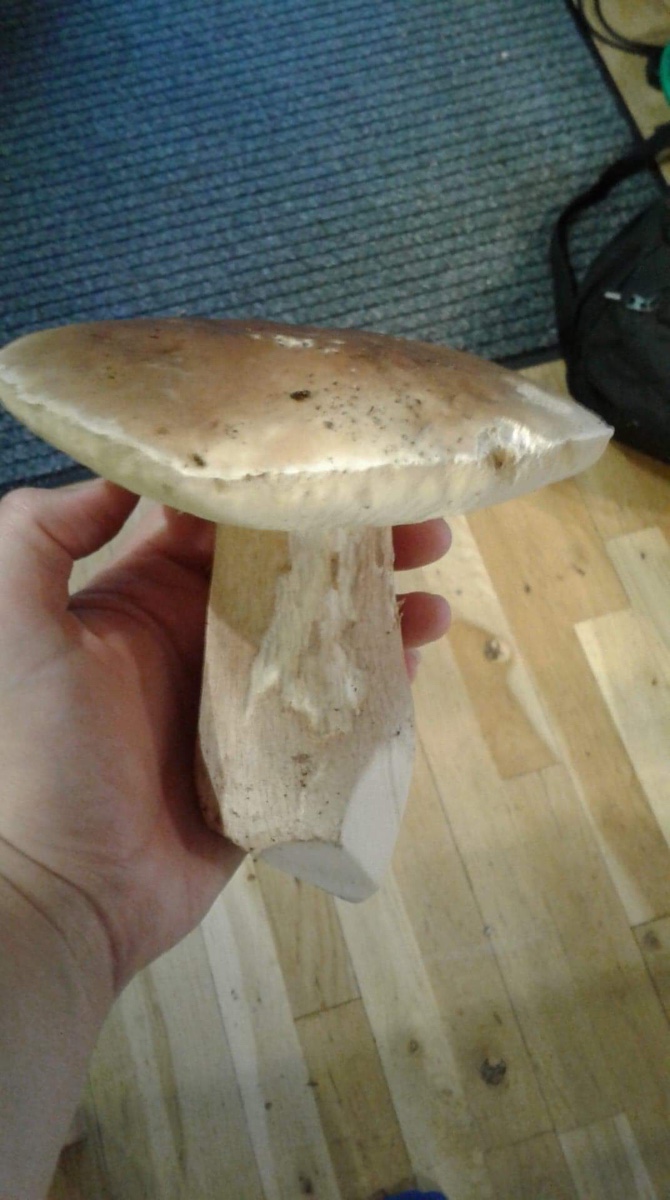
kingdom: Fungi
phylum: Basidiomycota
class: Agaricomycetes
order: Boletales
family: Boletaceae
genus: Boletus
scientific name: Boletus edulis
